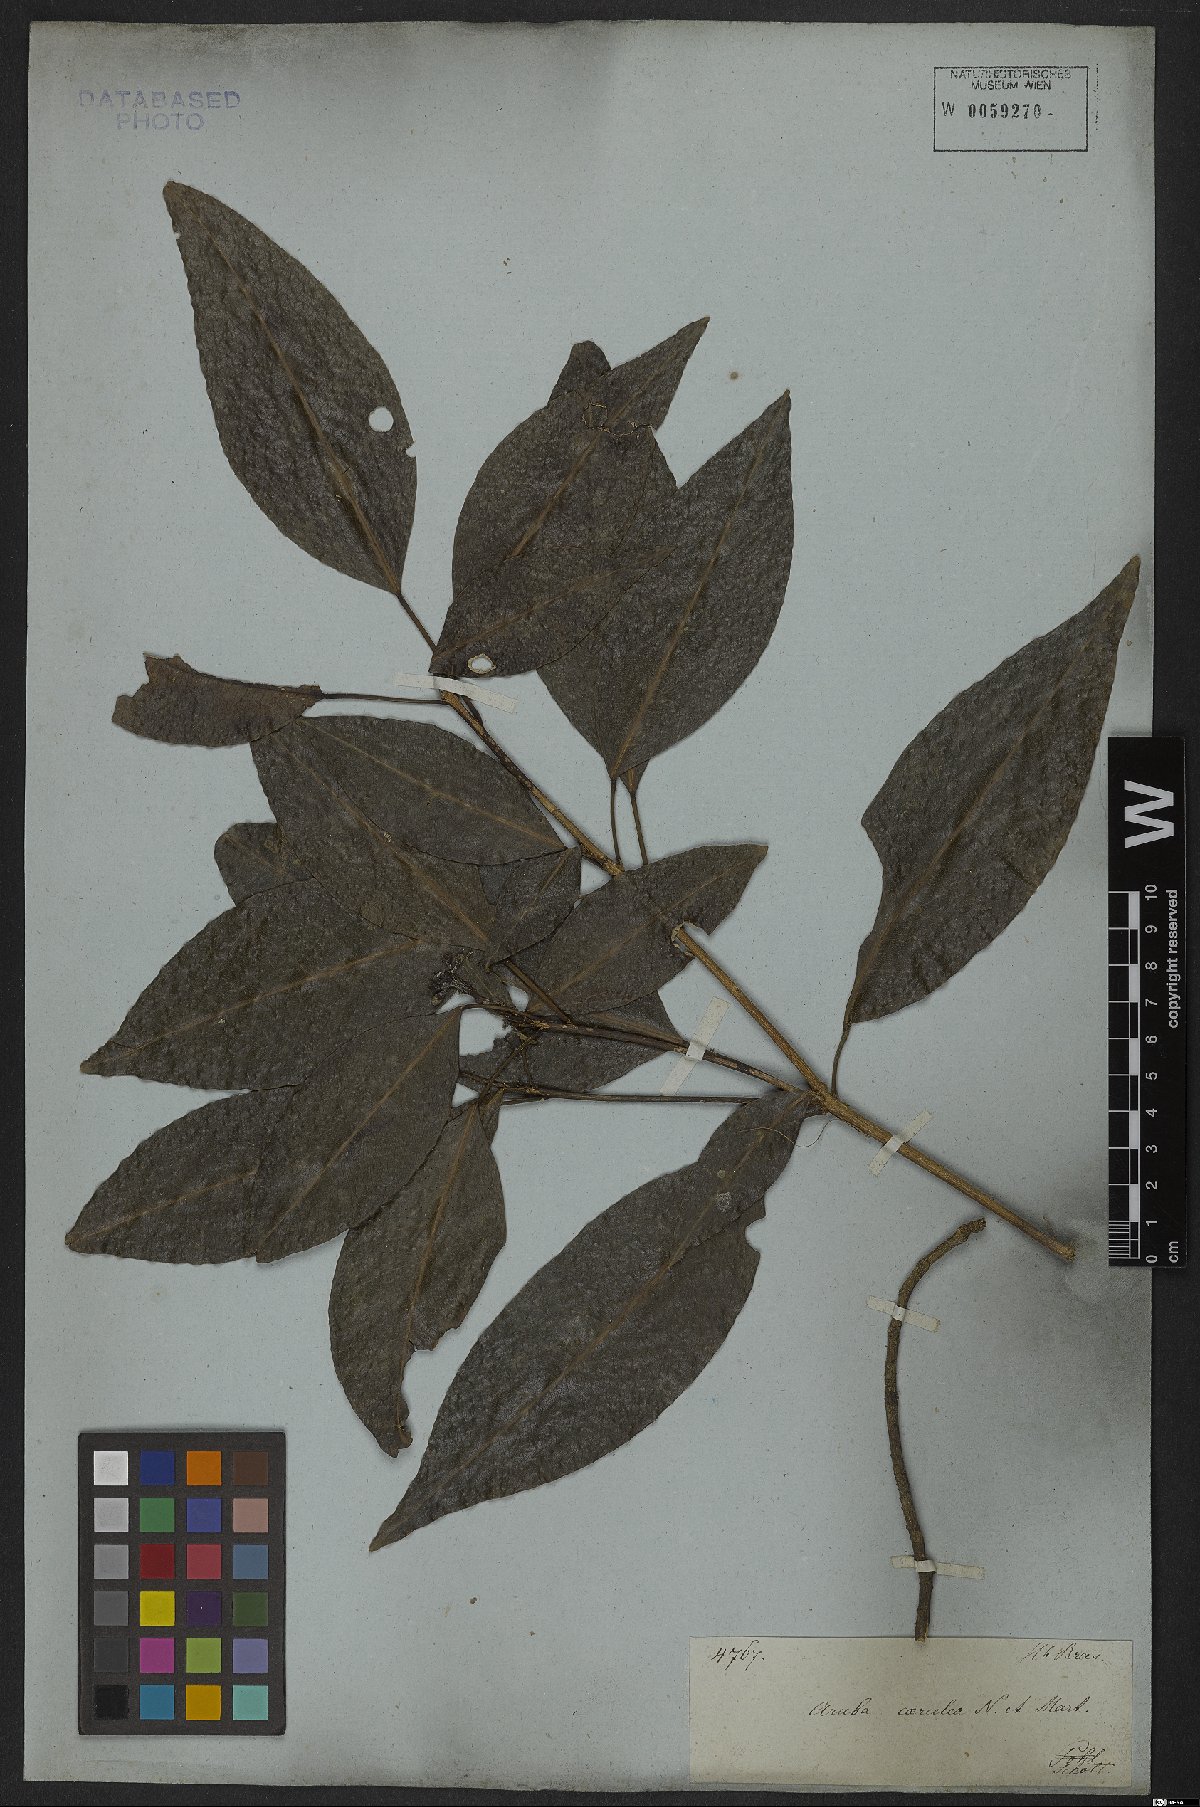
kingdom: Plantae
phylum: Tracheophyta
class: Magnoliopsida
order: Sapindales
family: Rutaceae
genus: Conchocarpus
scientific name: Conchocarpus coeruleus
